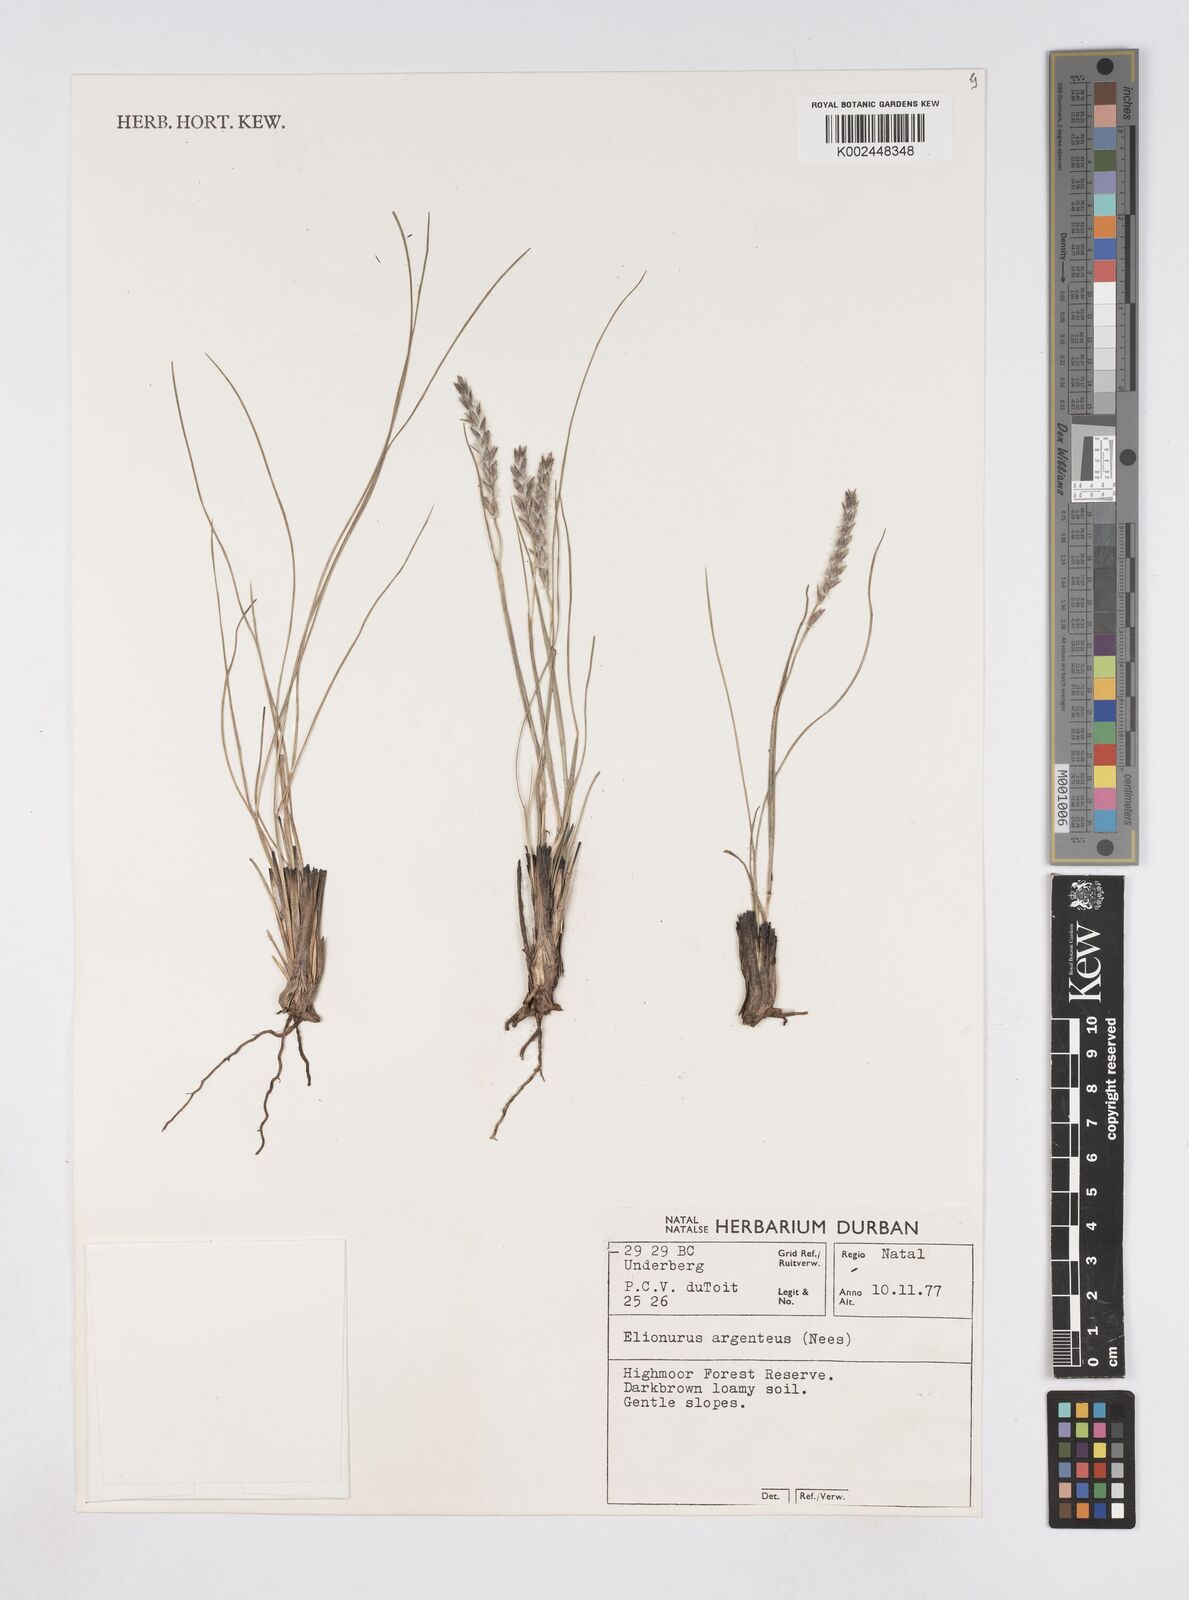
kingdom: Plantae
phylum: Tracheophyta
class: Liliopsida
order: Poales
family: Poaceae
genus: Elionurus
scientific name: Elionurus muticus
